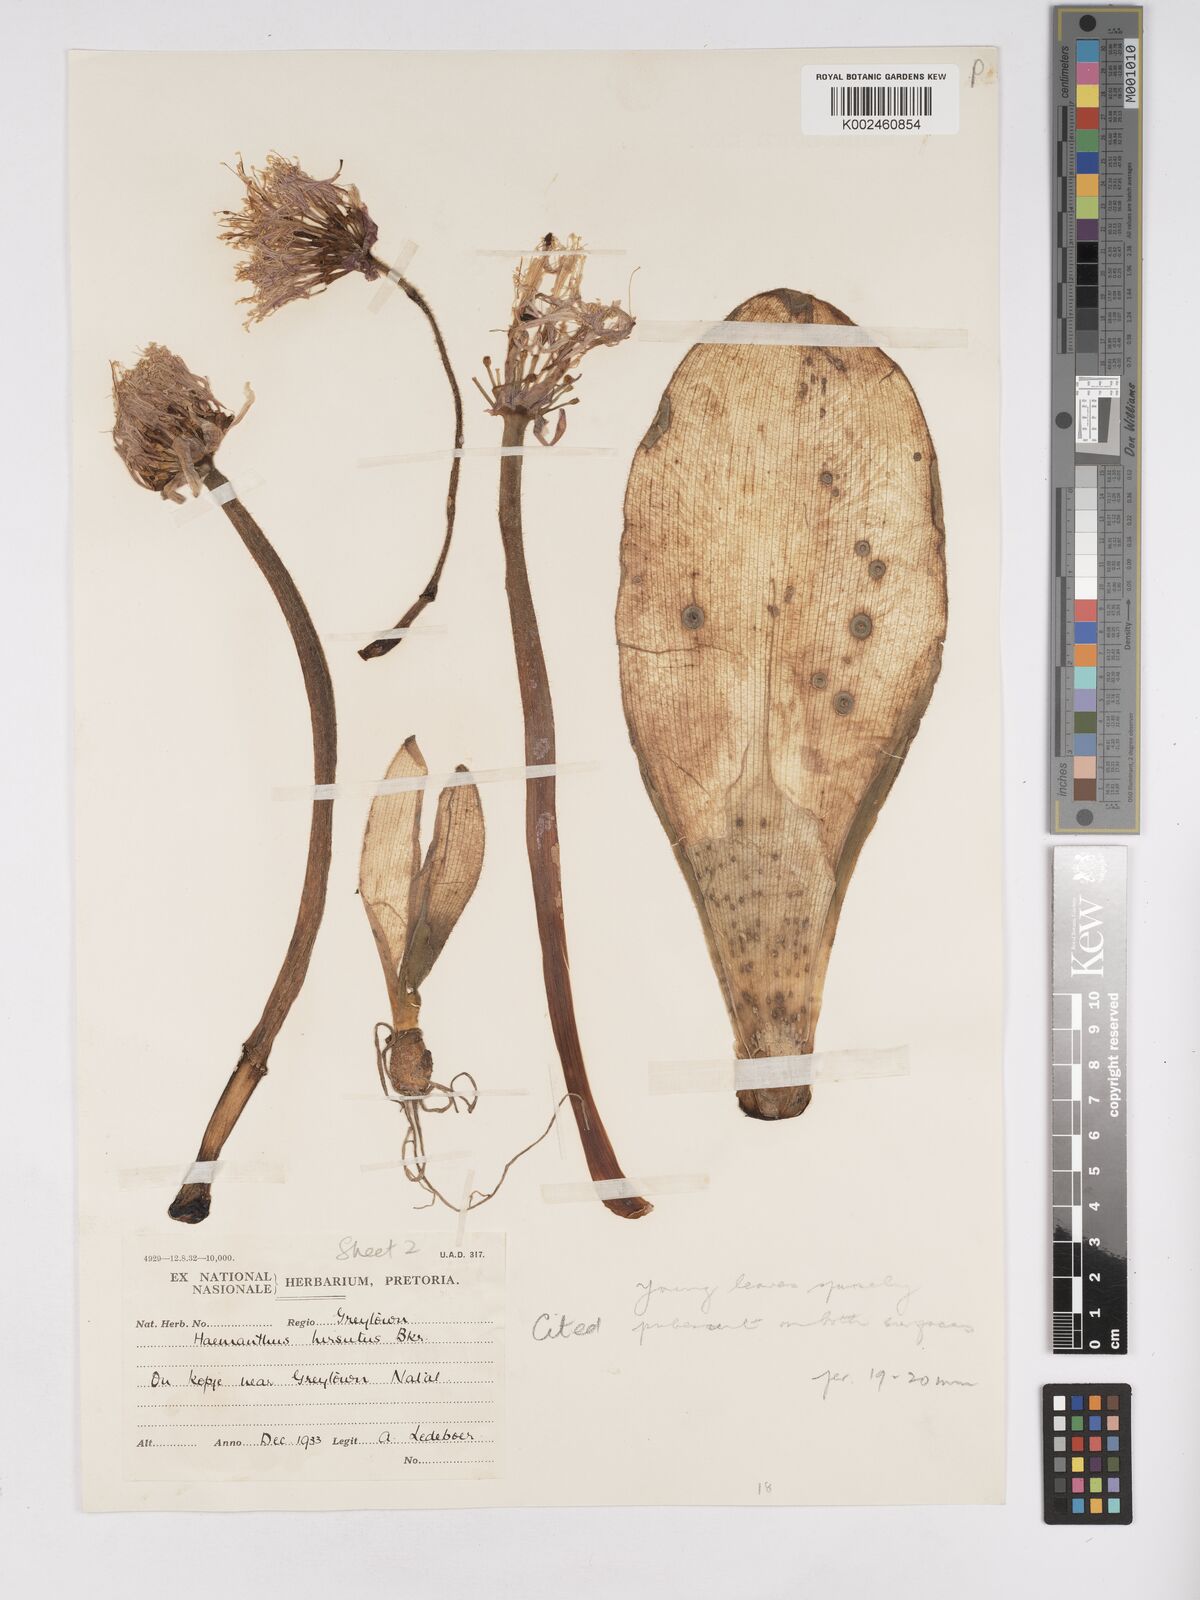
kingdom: Plantae
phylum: Tracheophyta
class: Liliopsida
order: Asparagales
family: Amaryllidaceae
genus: Haemanthus
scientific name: Haemanthus humilis
